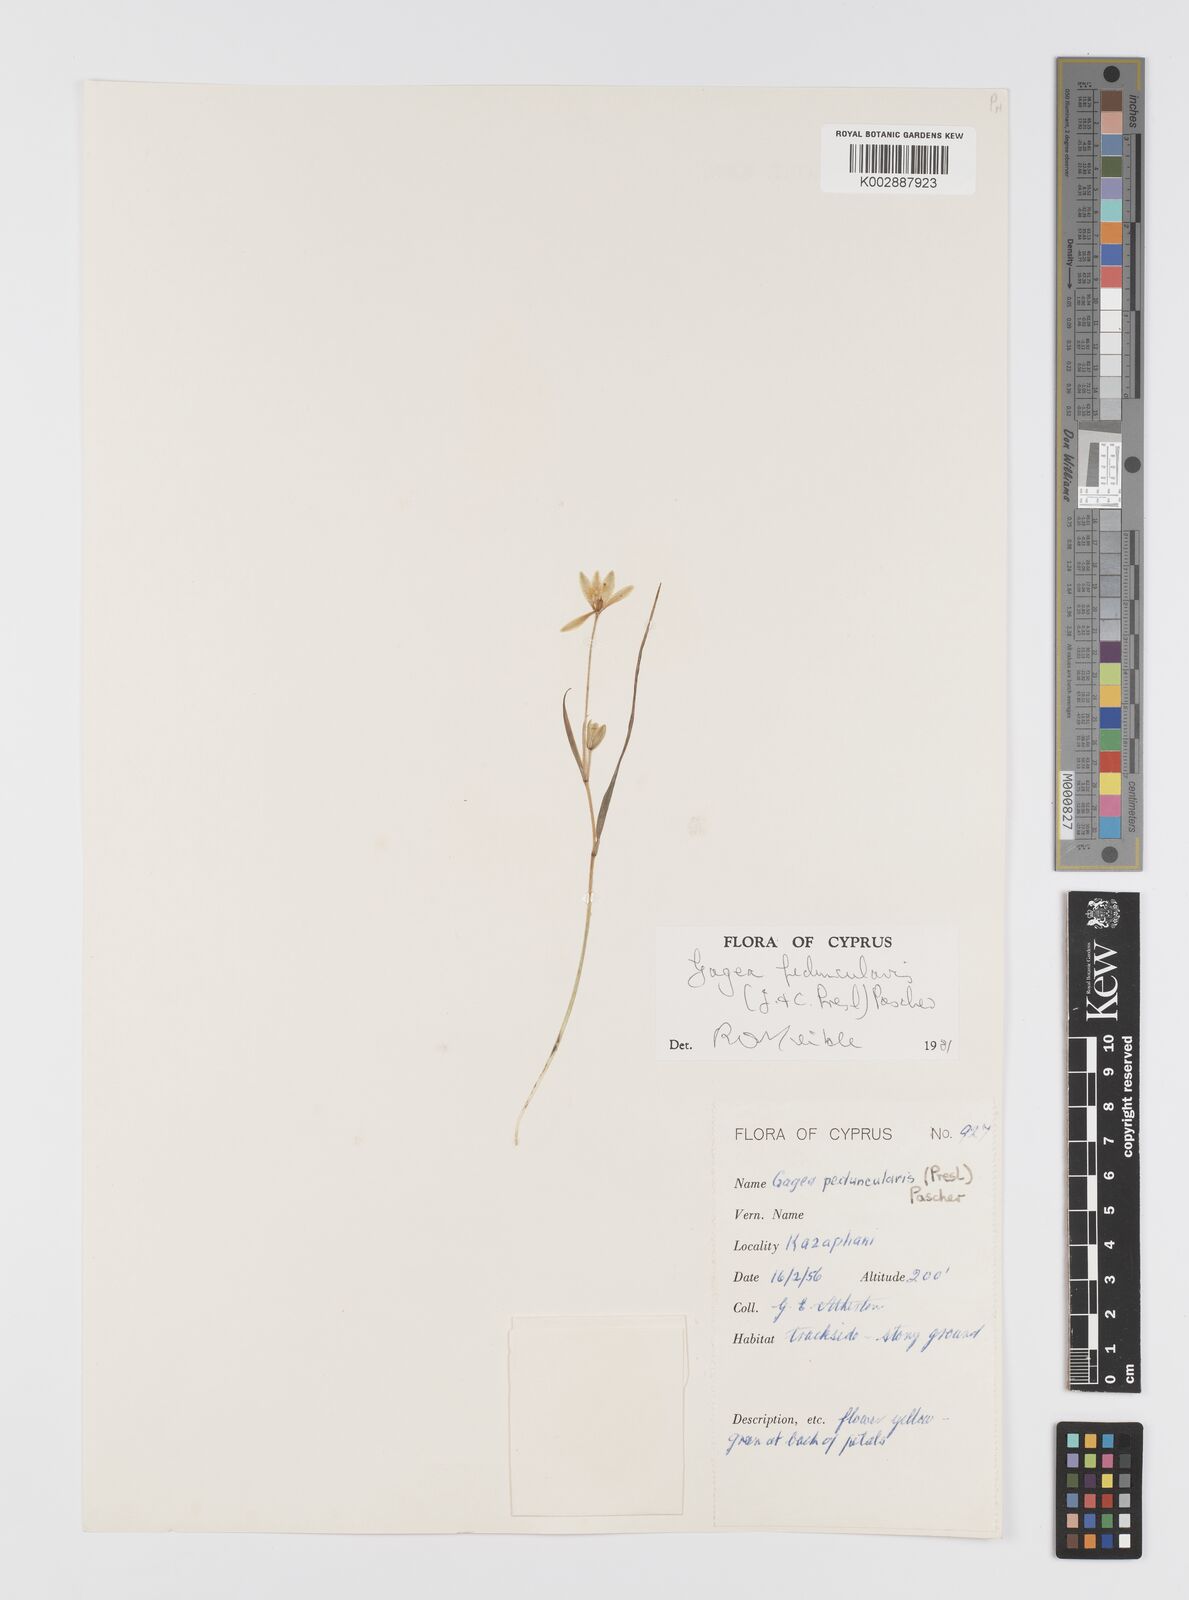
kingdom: Plantae
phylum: Tracheophyta
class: Liliopsida
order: Liliales
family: Liliaceae
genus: Gagea
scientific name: Gagea peduncularis
